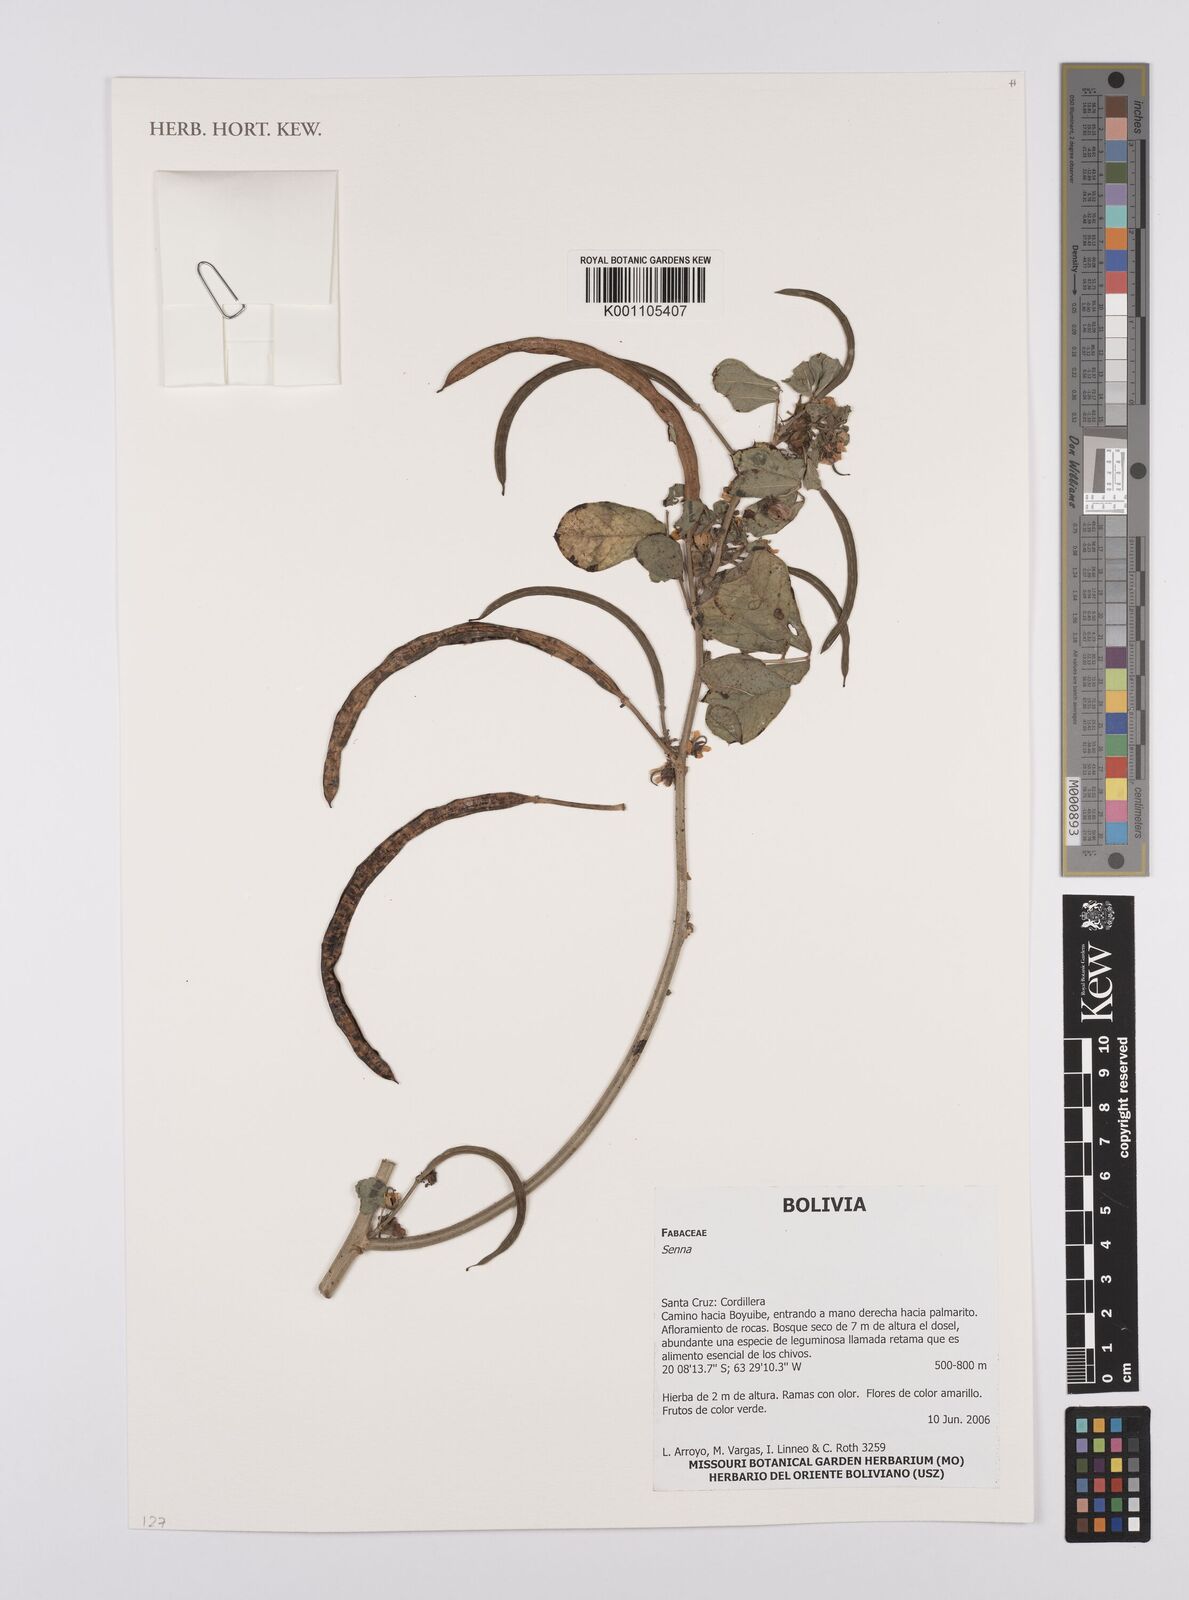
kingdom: Plantae
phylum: Tracheophyta
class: Magnoliopsida
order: Fabales
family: Fabaceae
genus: Senna
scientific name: Senna
